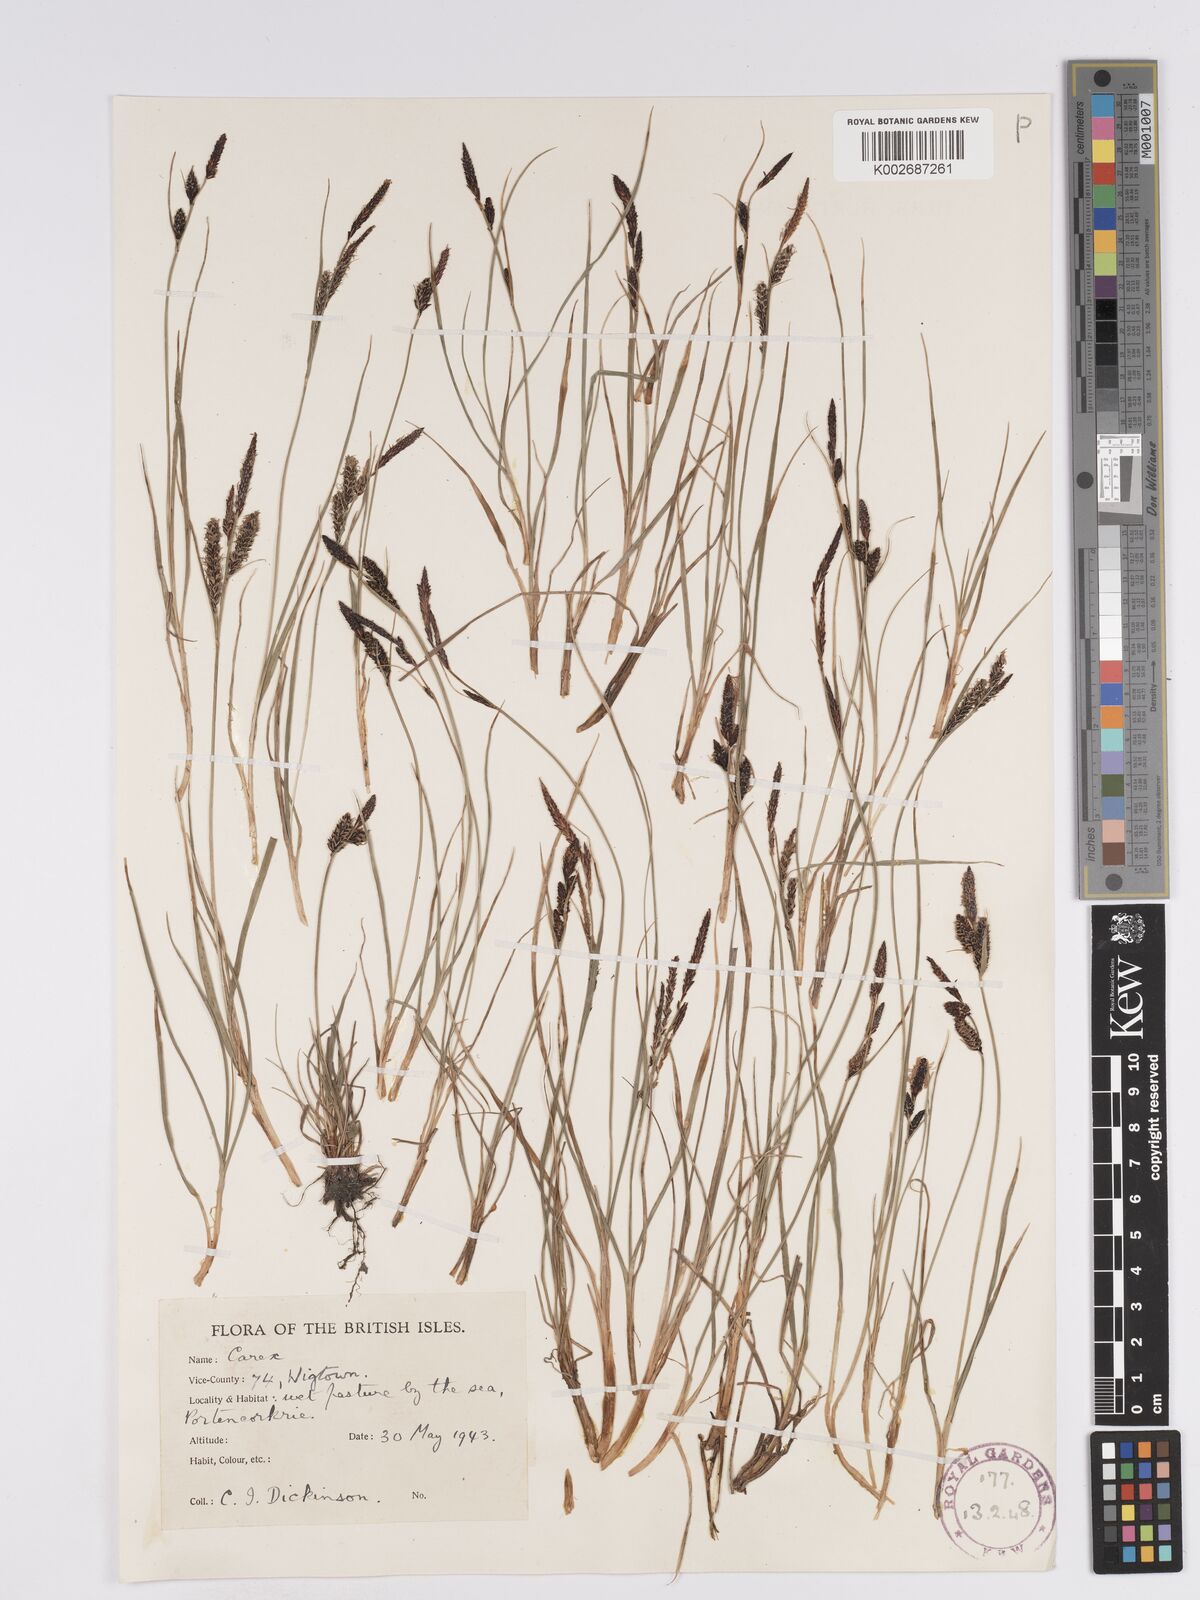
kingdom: Plantae
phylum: Tracheophyta
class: Liliopsida
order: Poales
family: Cyperaceae
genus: Carex
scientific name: Carex nigra
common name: Common sedge
